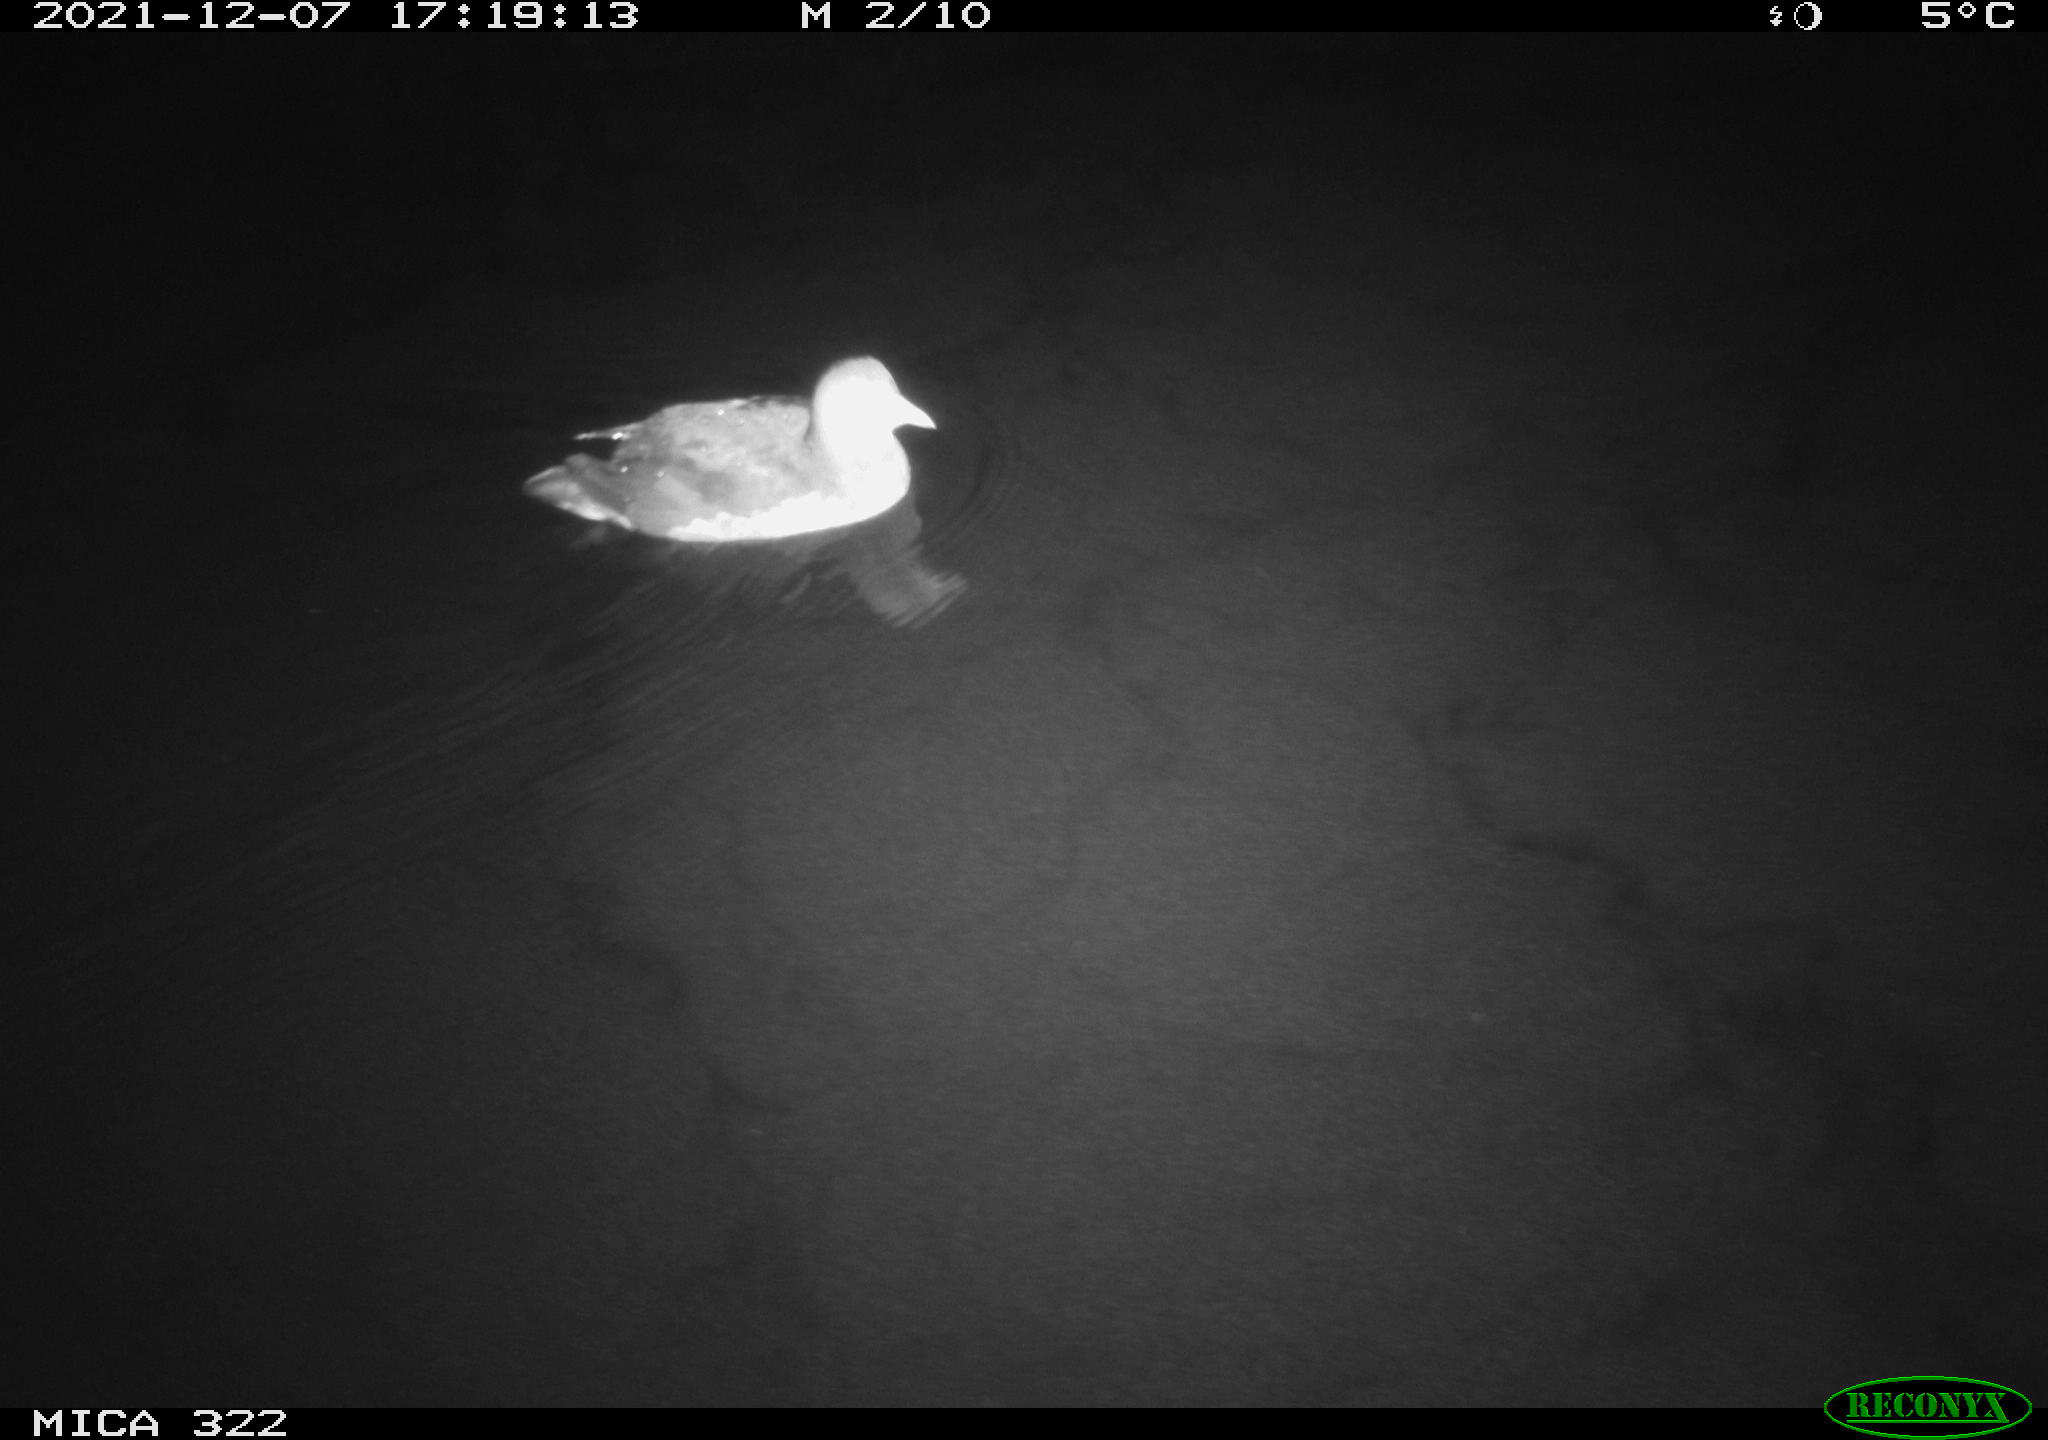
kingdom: Animalia
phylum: Chordata
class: Aves
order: Anseriformes
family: Anatidae
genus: Anas
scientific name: Anas
